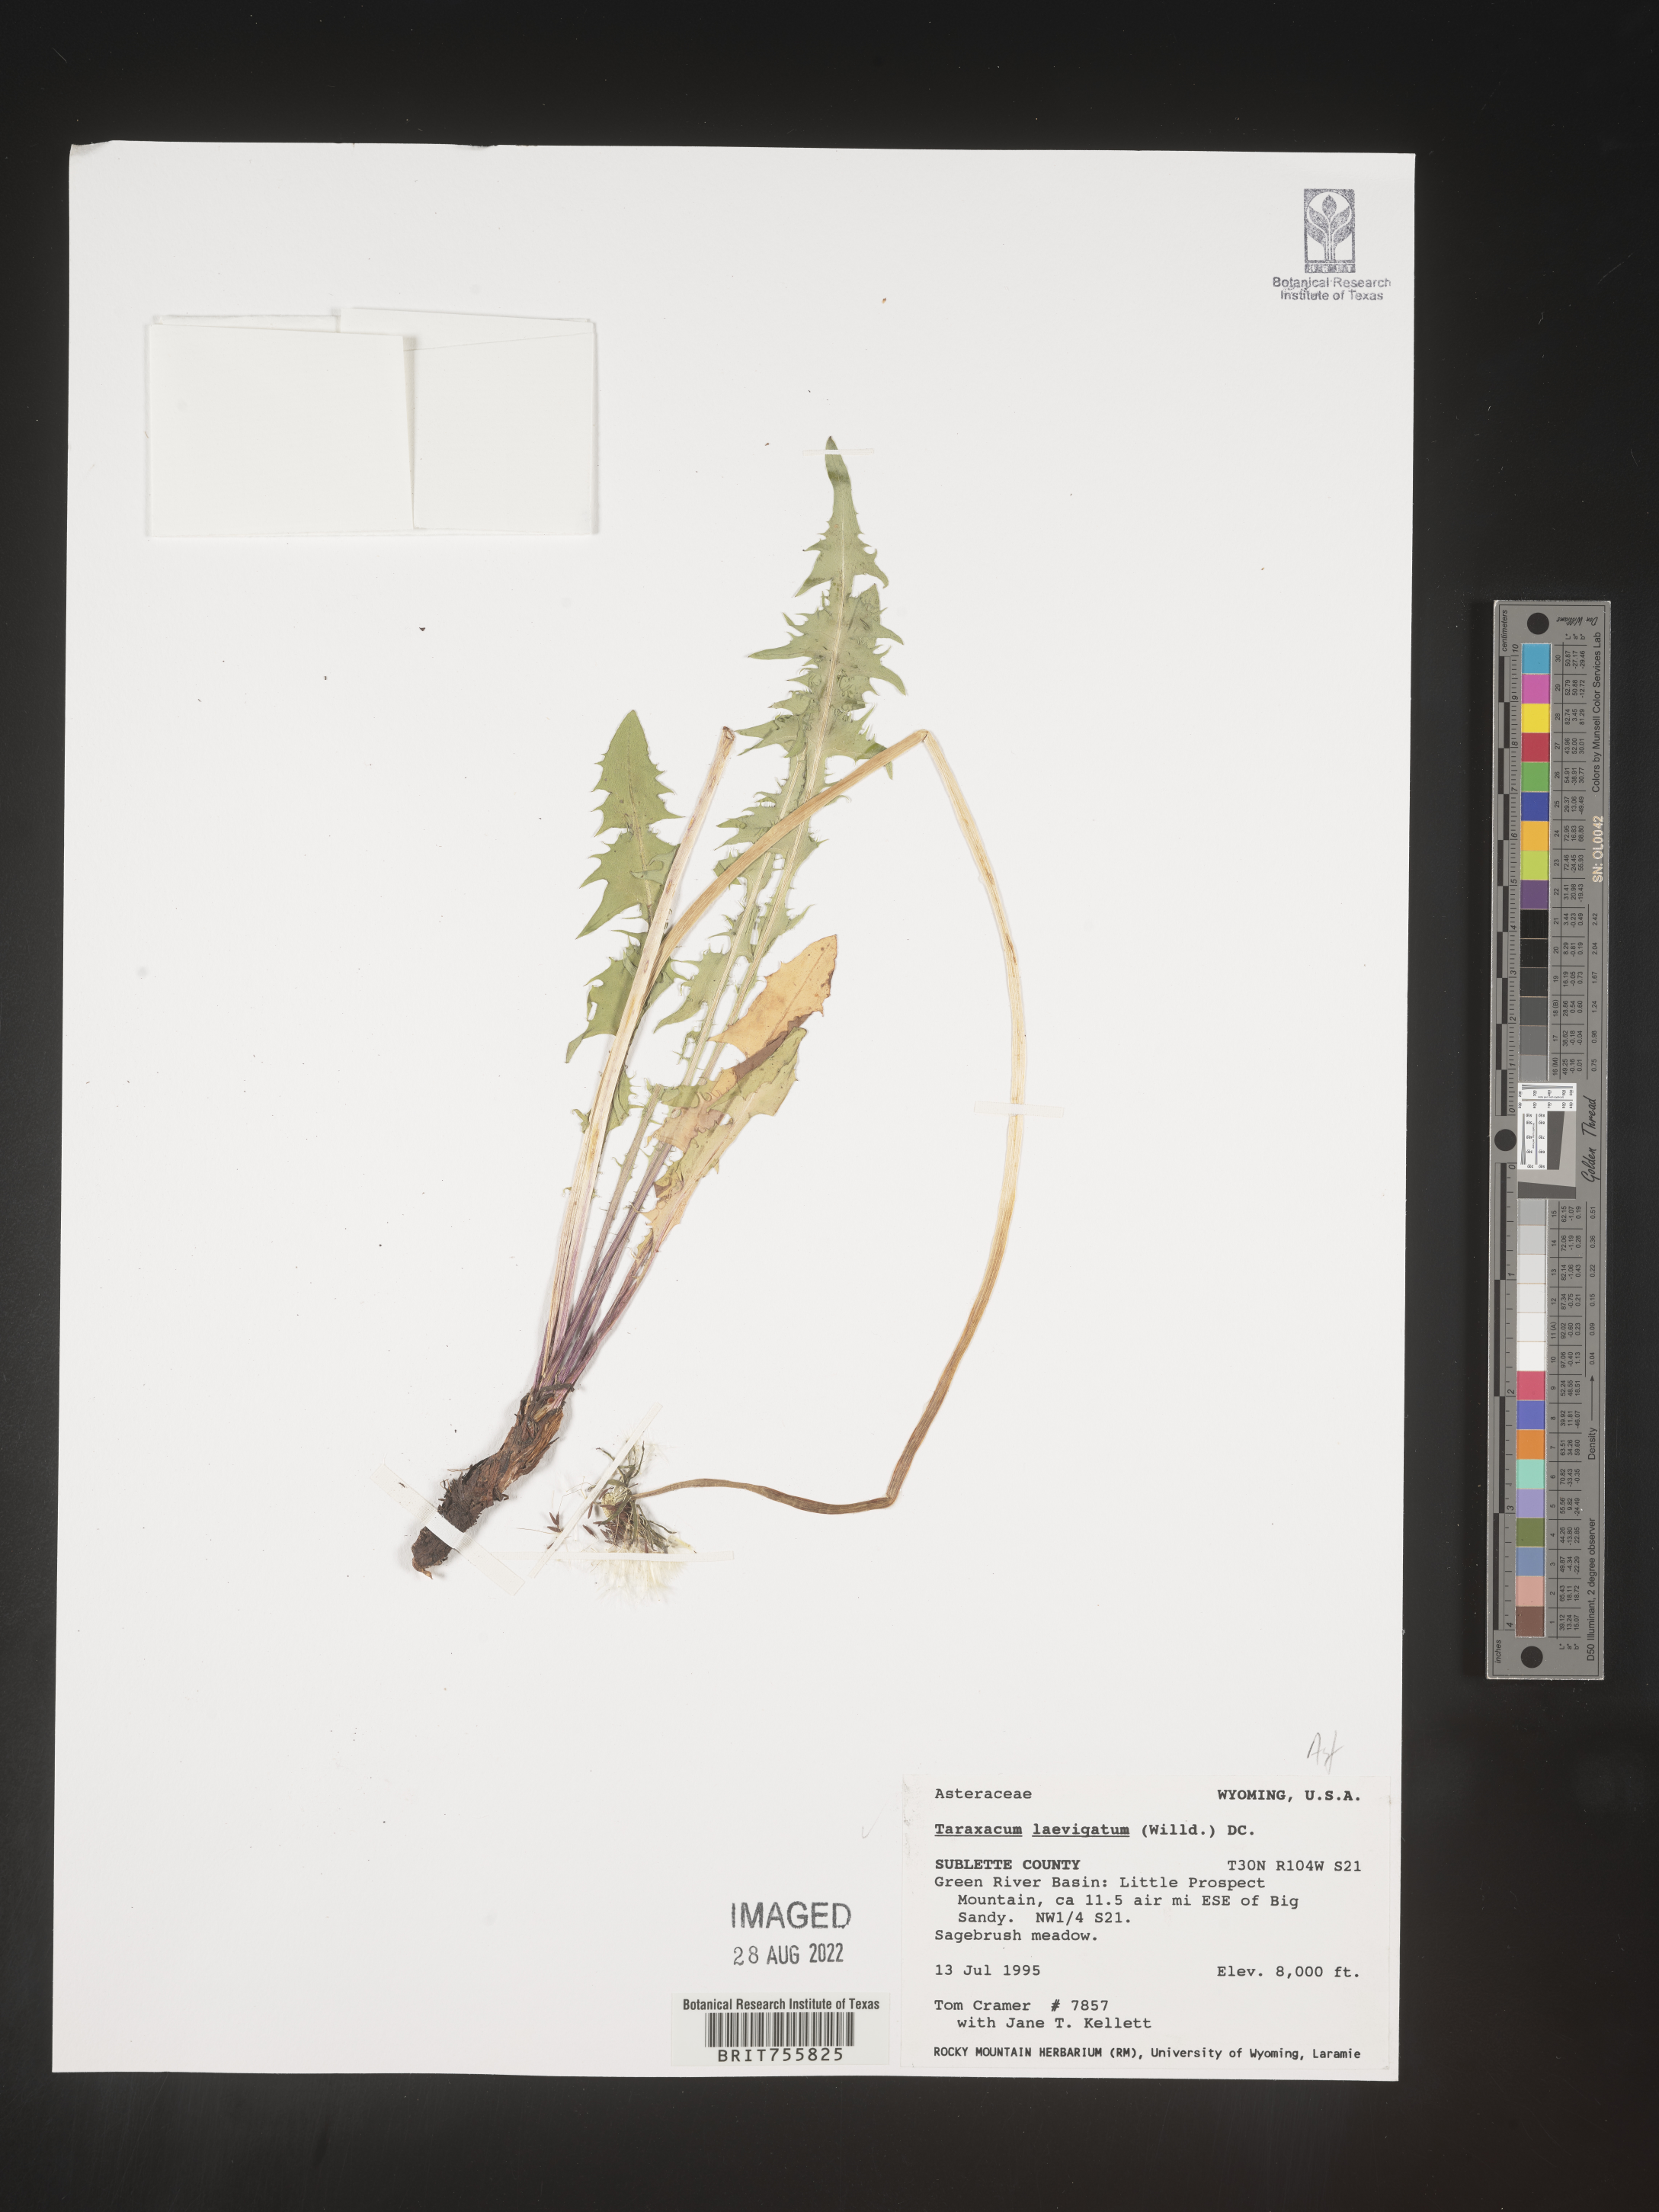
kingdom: Plantae
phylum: Tracheophyta
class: Magnoliopsida
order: Asterales
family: Asteraceae
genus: Taraxacum
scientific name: Taraxacum
